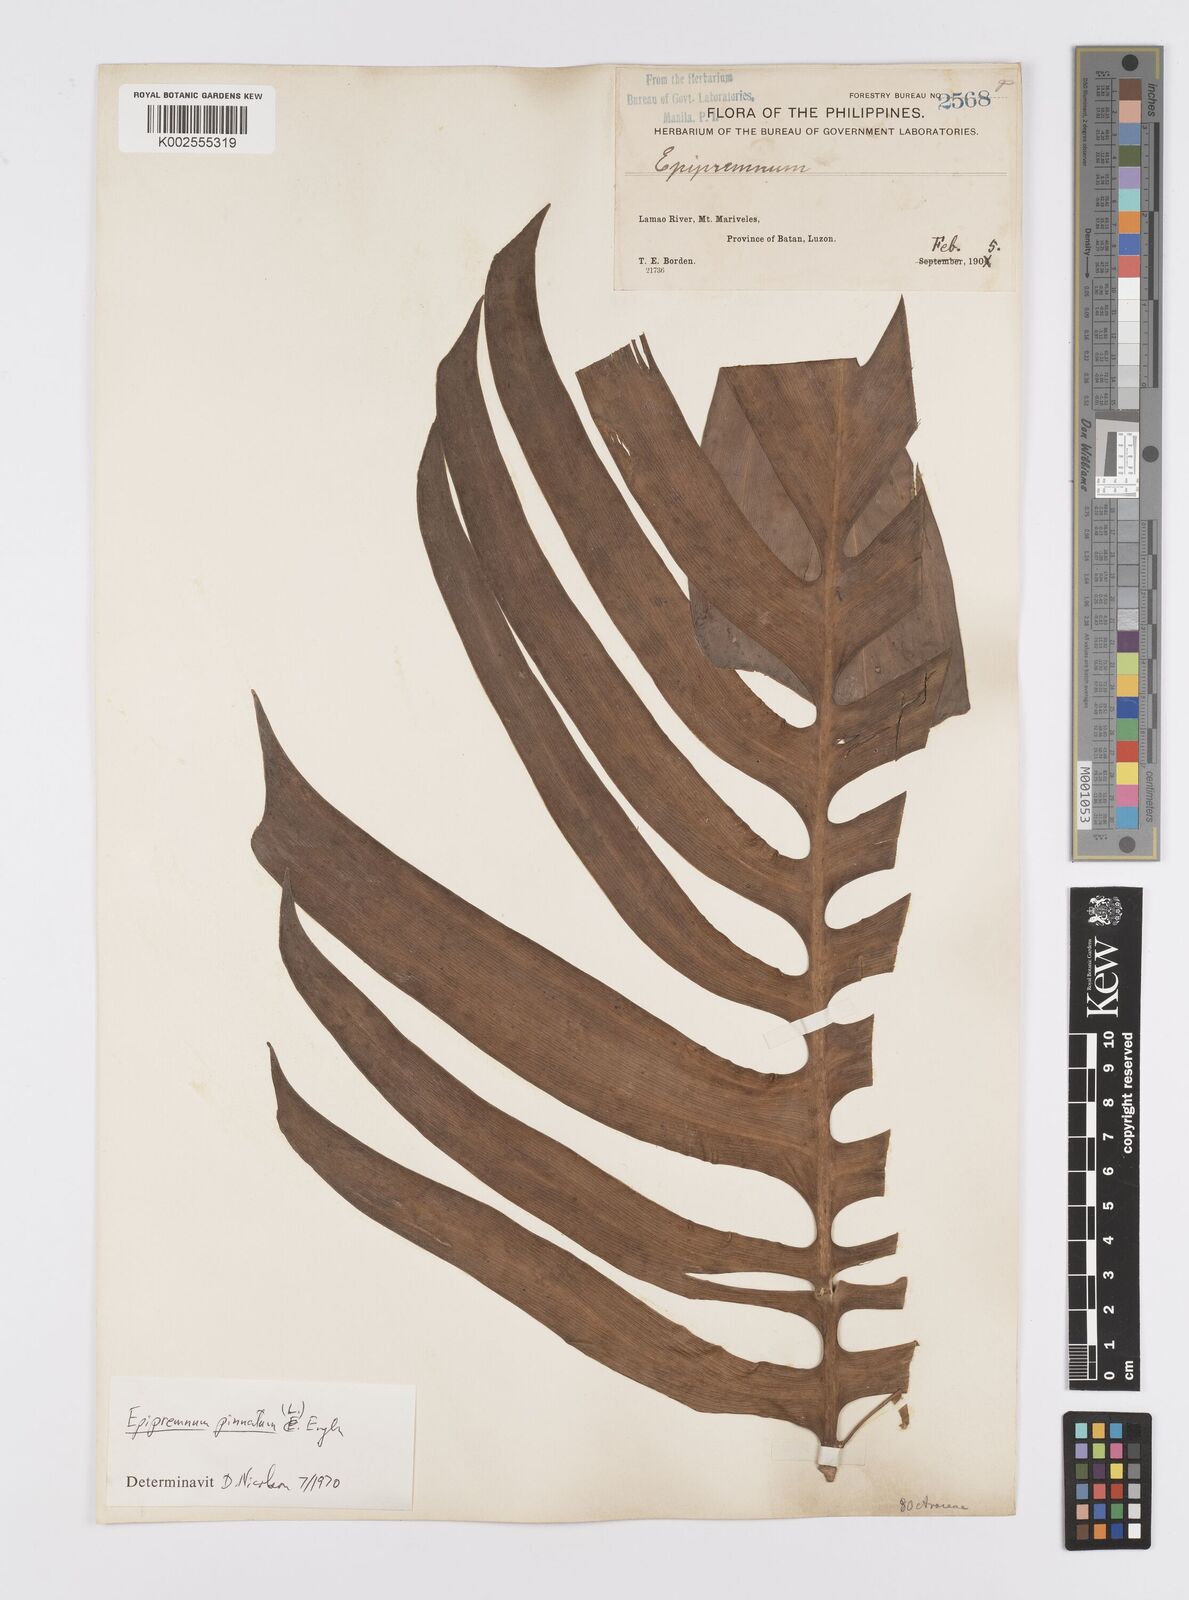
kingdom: Plantae
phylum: Tracheophyta
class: Liliopsida
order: Alismatales
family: Araceae
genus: Epipremnum
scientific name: Epipremnum pinnatum
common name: Centipede tongavine
